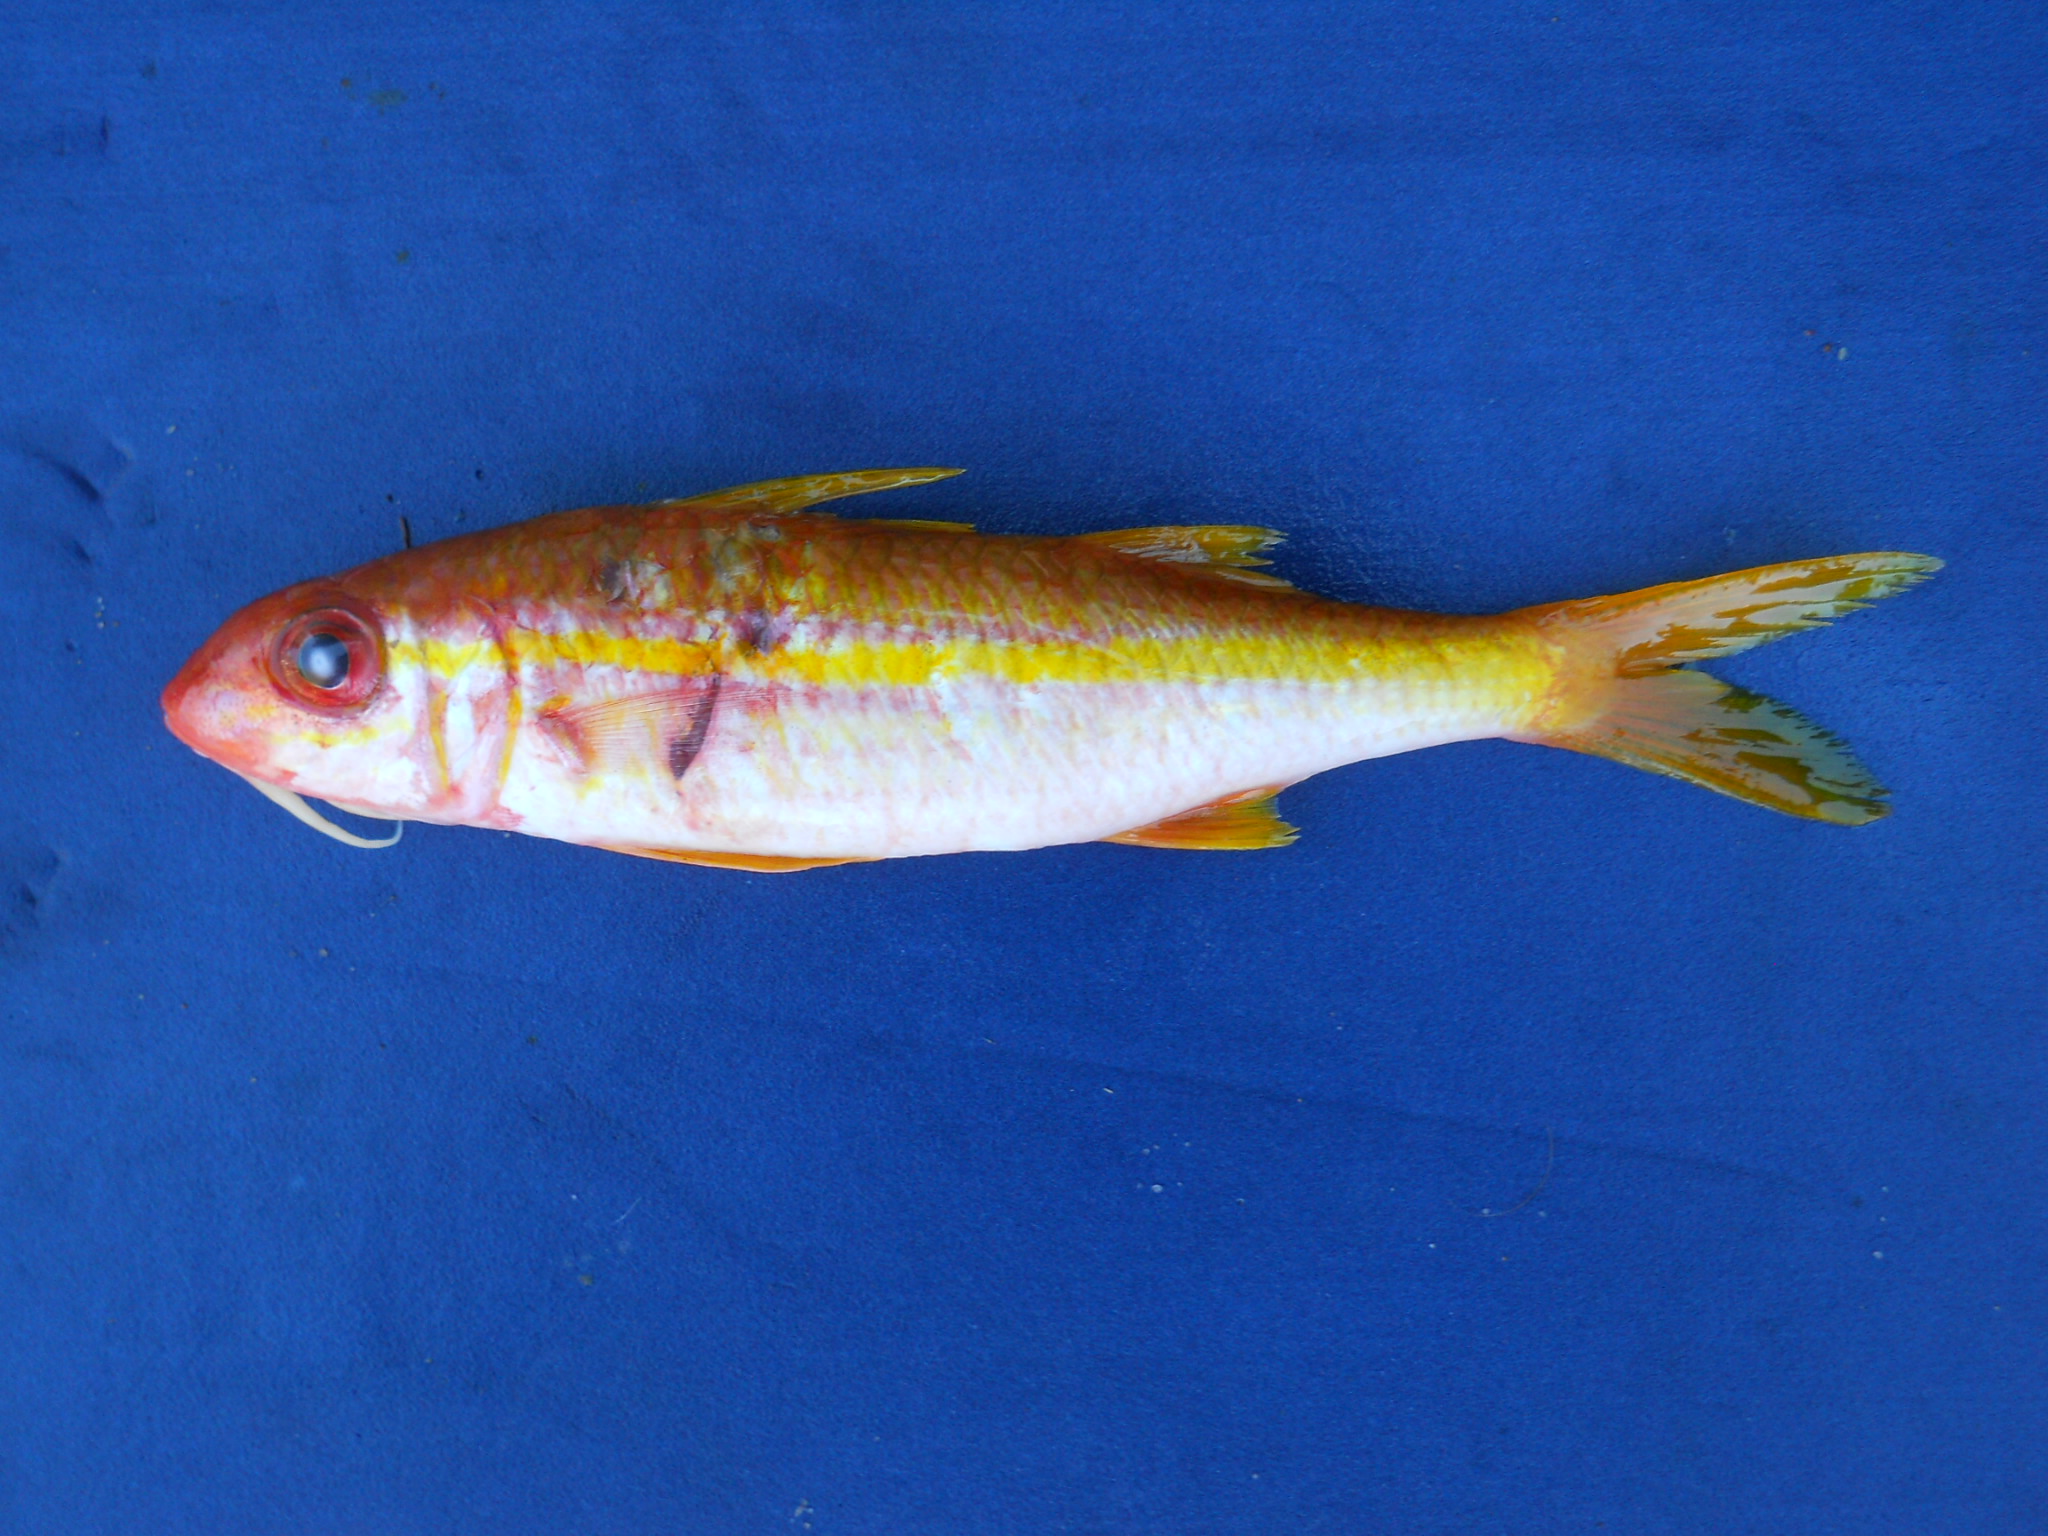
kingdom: Animalia
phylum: Chordata
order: Perciformes
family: Mullidae
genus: Mulloidichthys
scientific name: Mulloidichthys vanicolensis
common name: Yellowfin goatfish
